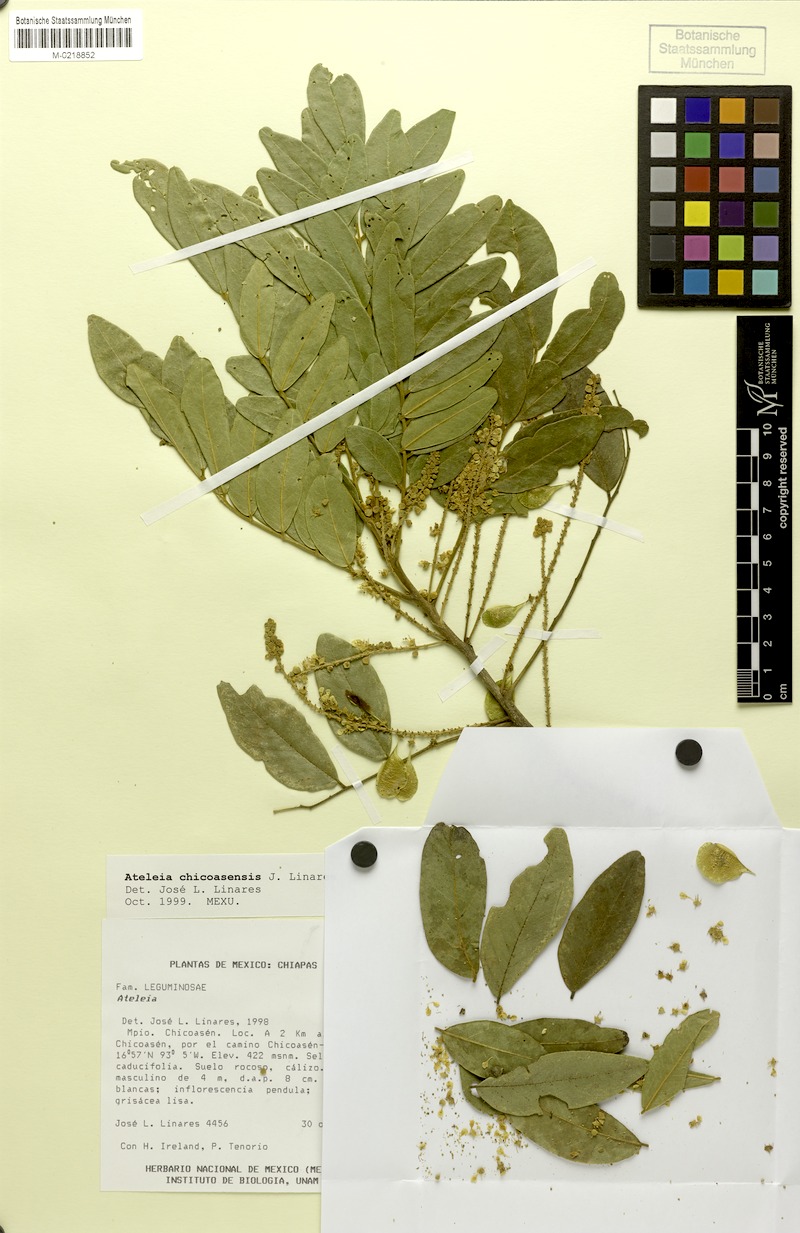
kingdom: Plantae
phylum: Tracheophyta
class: Magnoliopsida
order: Fabales
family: Fabaceae
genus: Ateleia
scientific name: Ateleia chicoasensis
